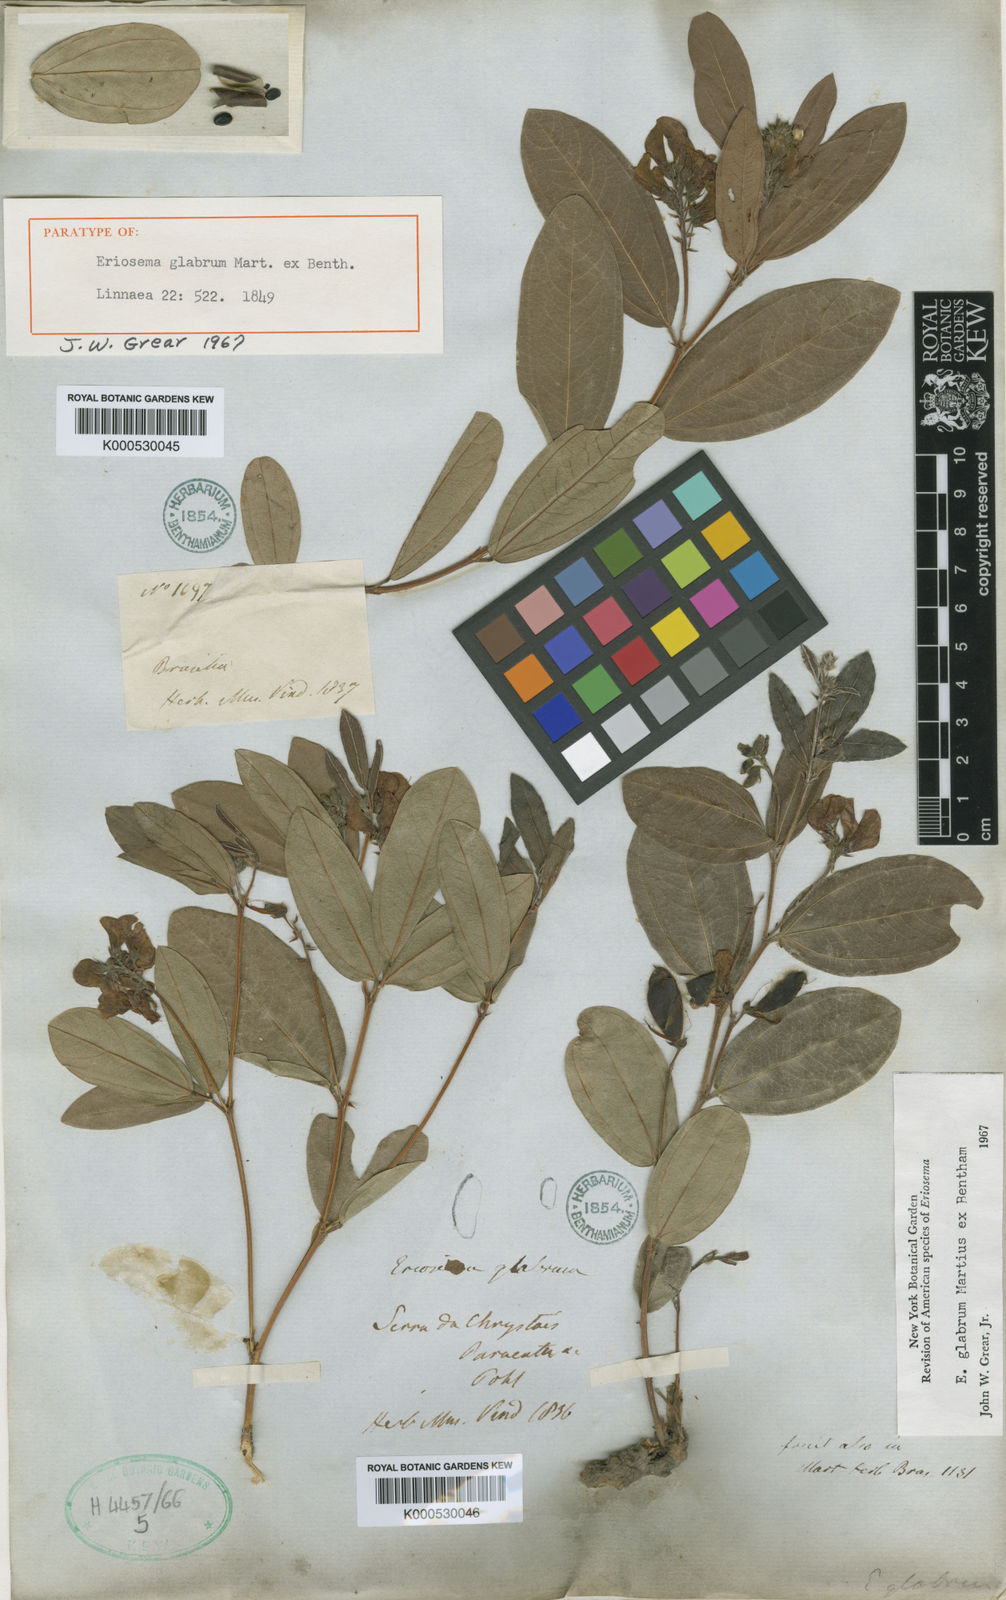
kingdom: Plantae
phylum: Tracheophyta
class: Magnoliopsida
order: Fabales
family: Fabaceae
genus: Eriosema
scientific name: Eriosema glabrum
